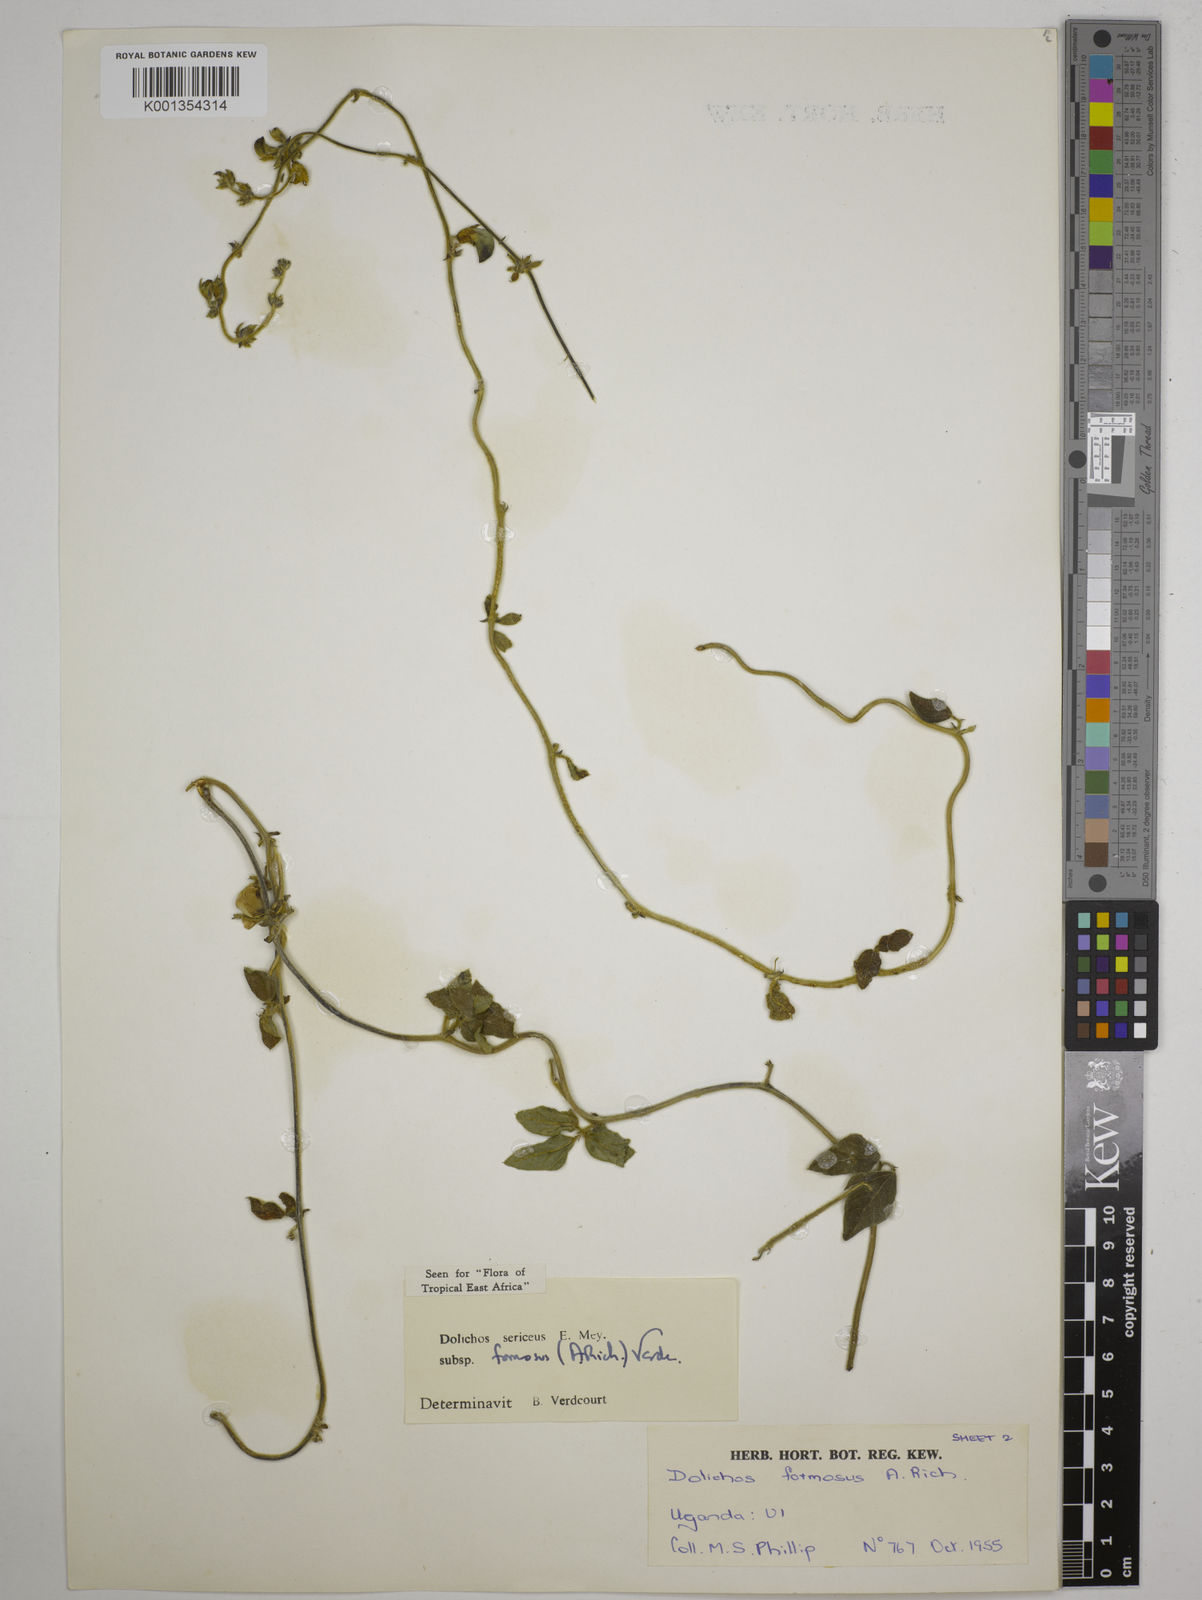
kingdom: Plantae
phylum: Tracheophyta
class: Magnoliopsida
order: Fabales
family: Fabaceae
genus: Dolichos
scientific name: Dolichos
